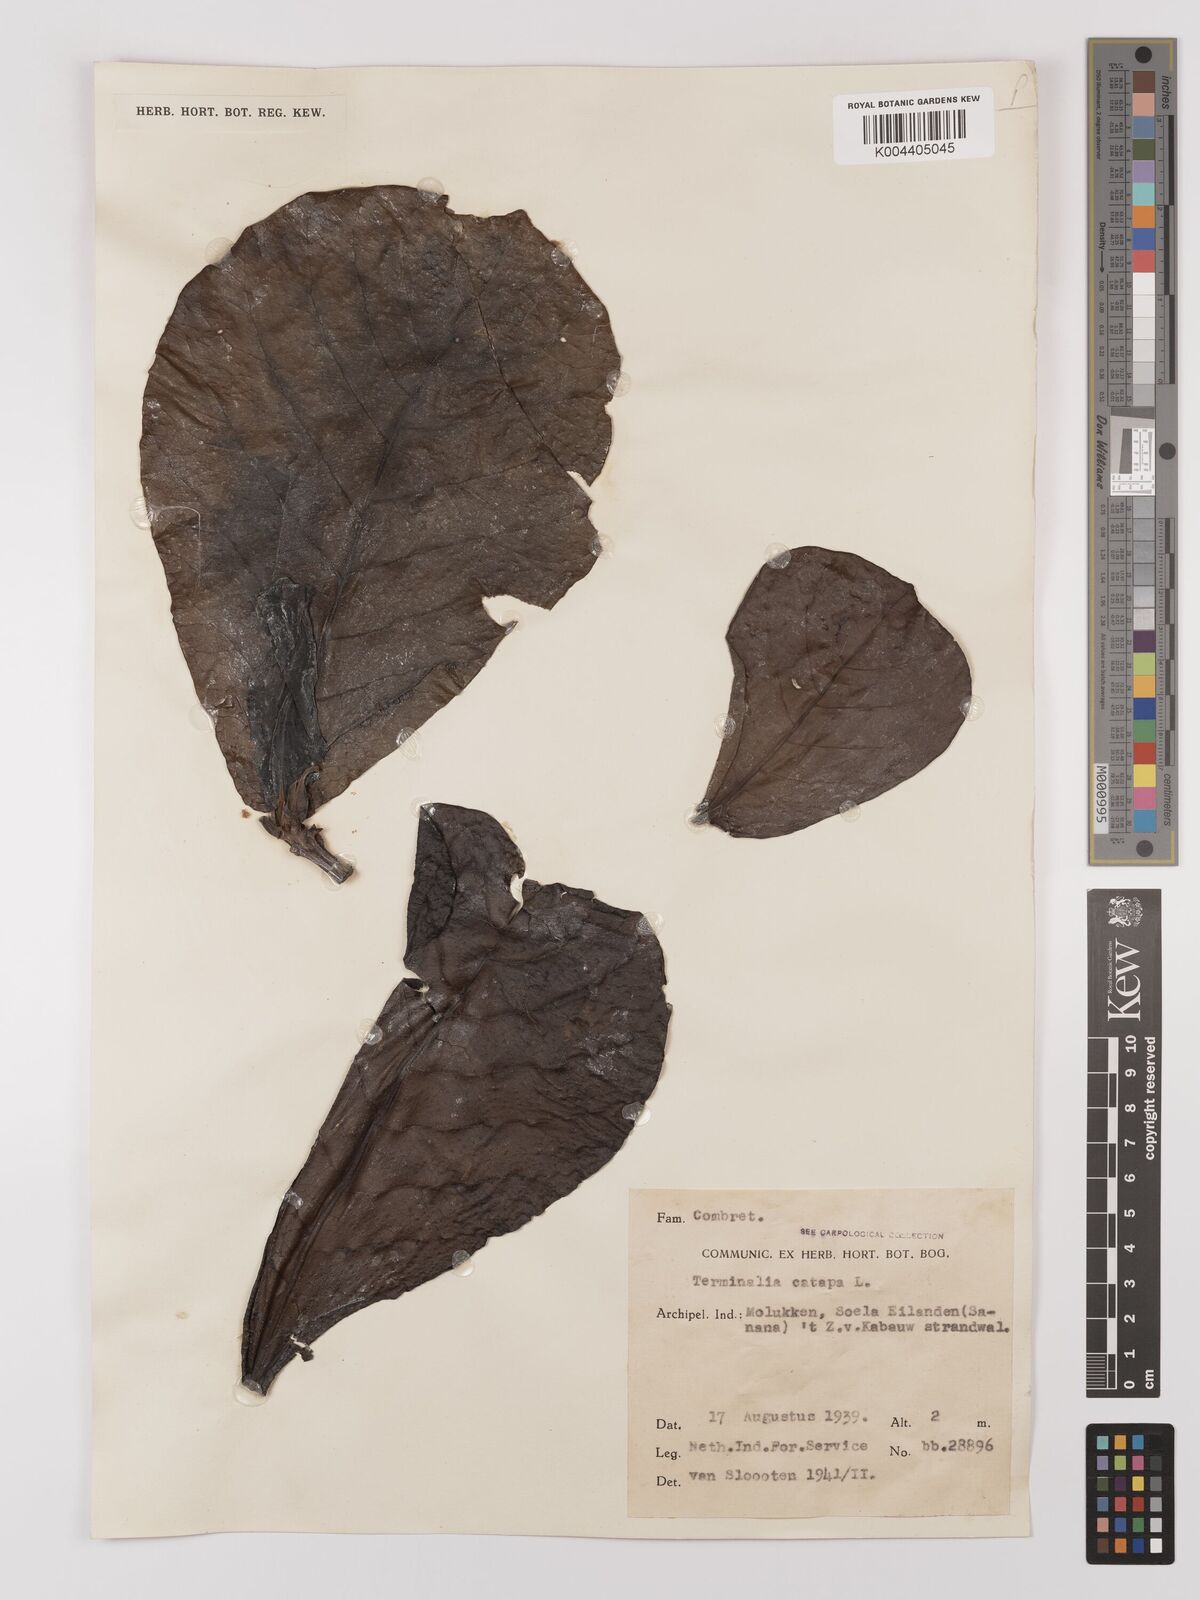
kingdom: Plantae
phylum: Tracheophyta
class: Magnoliopsida
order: Myrtales
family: Combretaceae
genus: Terminalia
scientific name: Terminalia catappa
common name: Tropical almond
